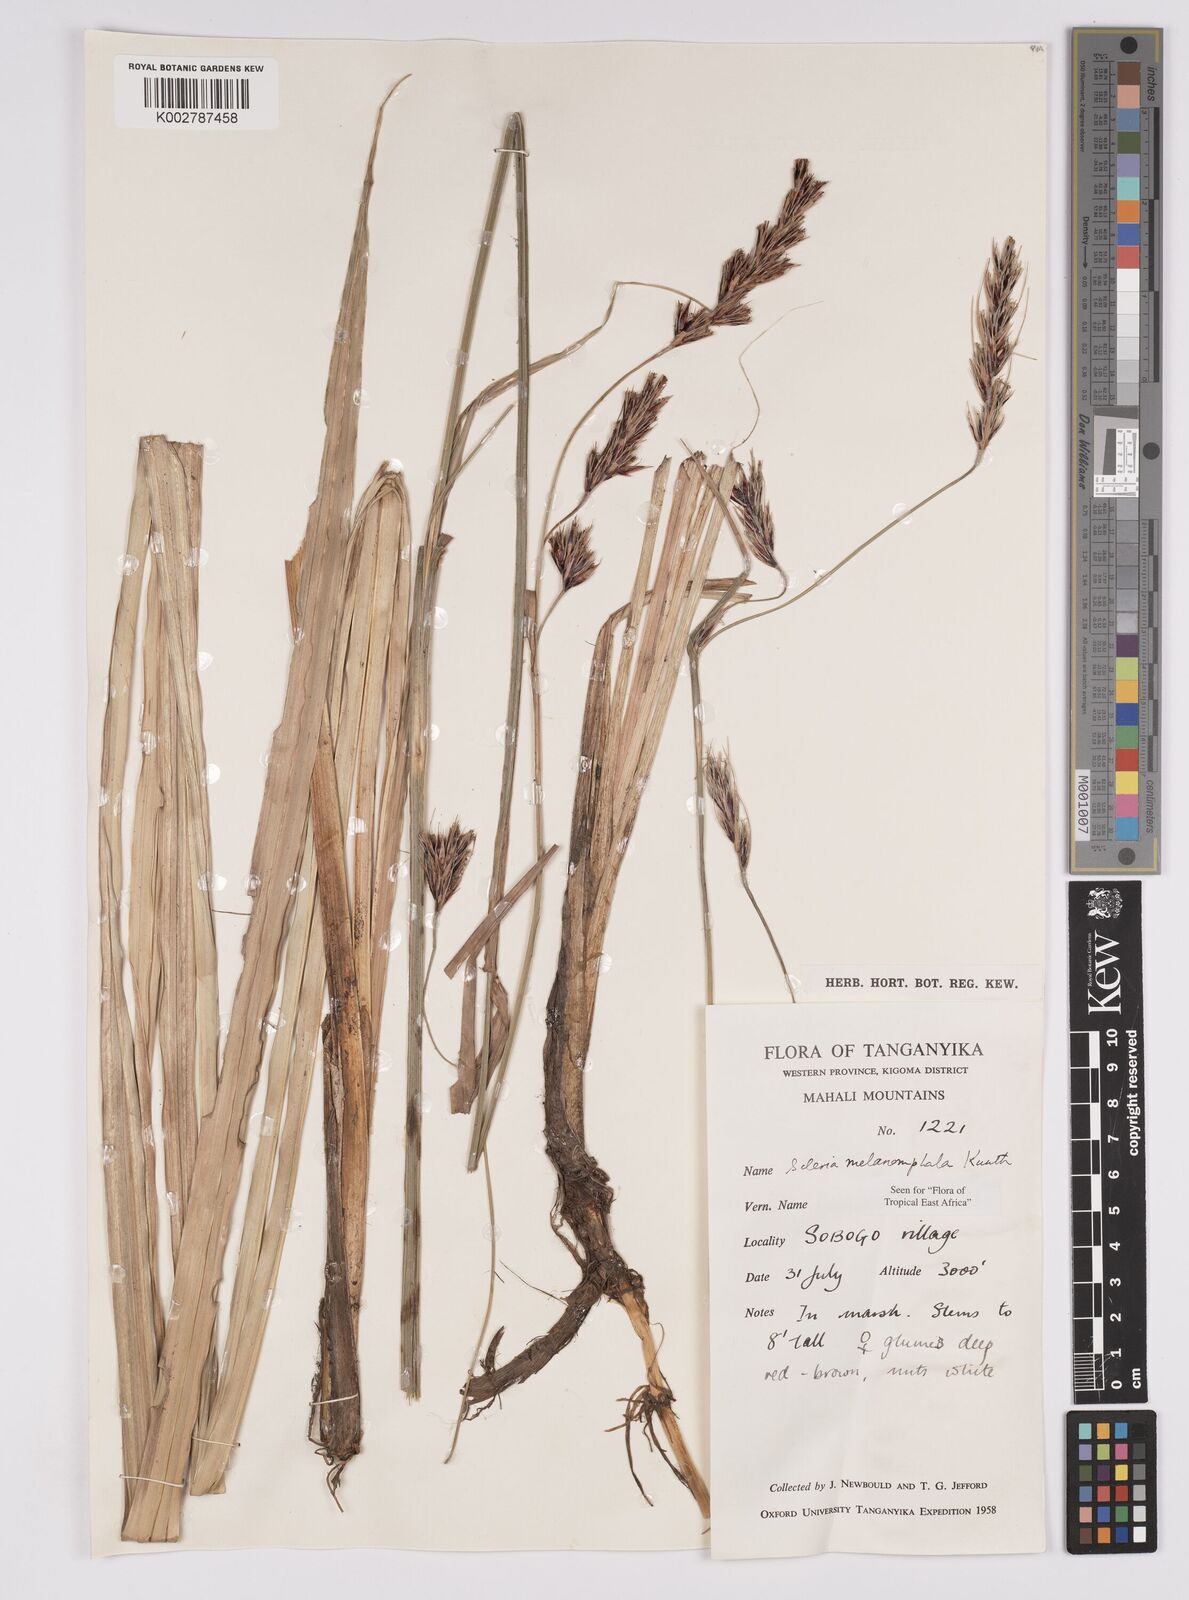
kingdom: Plantae
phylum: Tracheophyta
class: Liliopsida
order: Poales
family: Cyperaceae
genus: Scleria
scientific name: Scleria melanomphala
